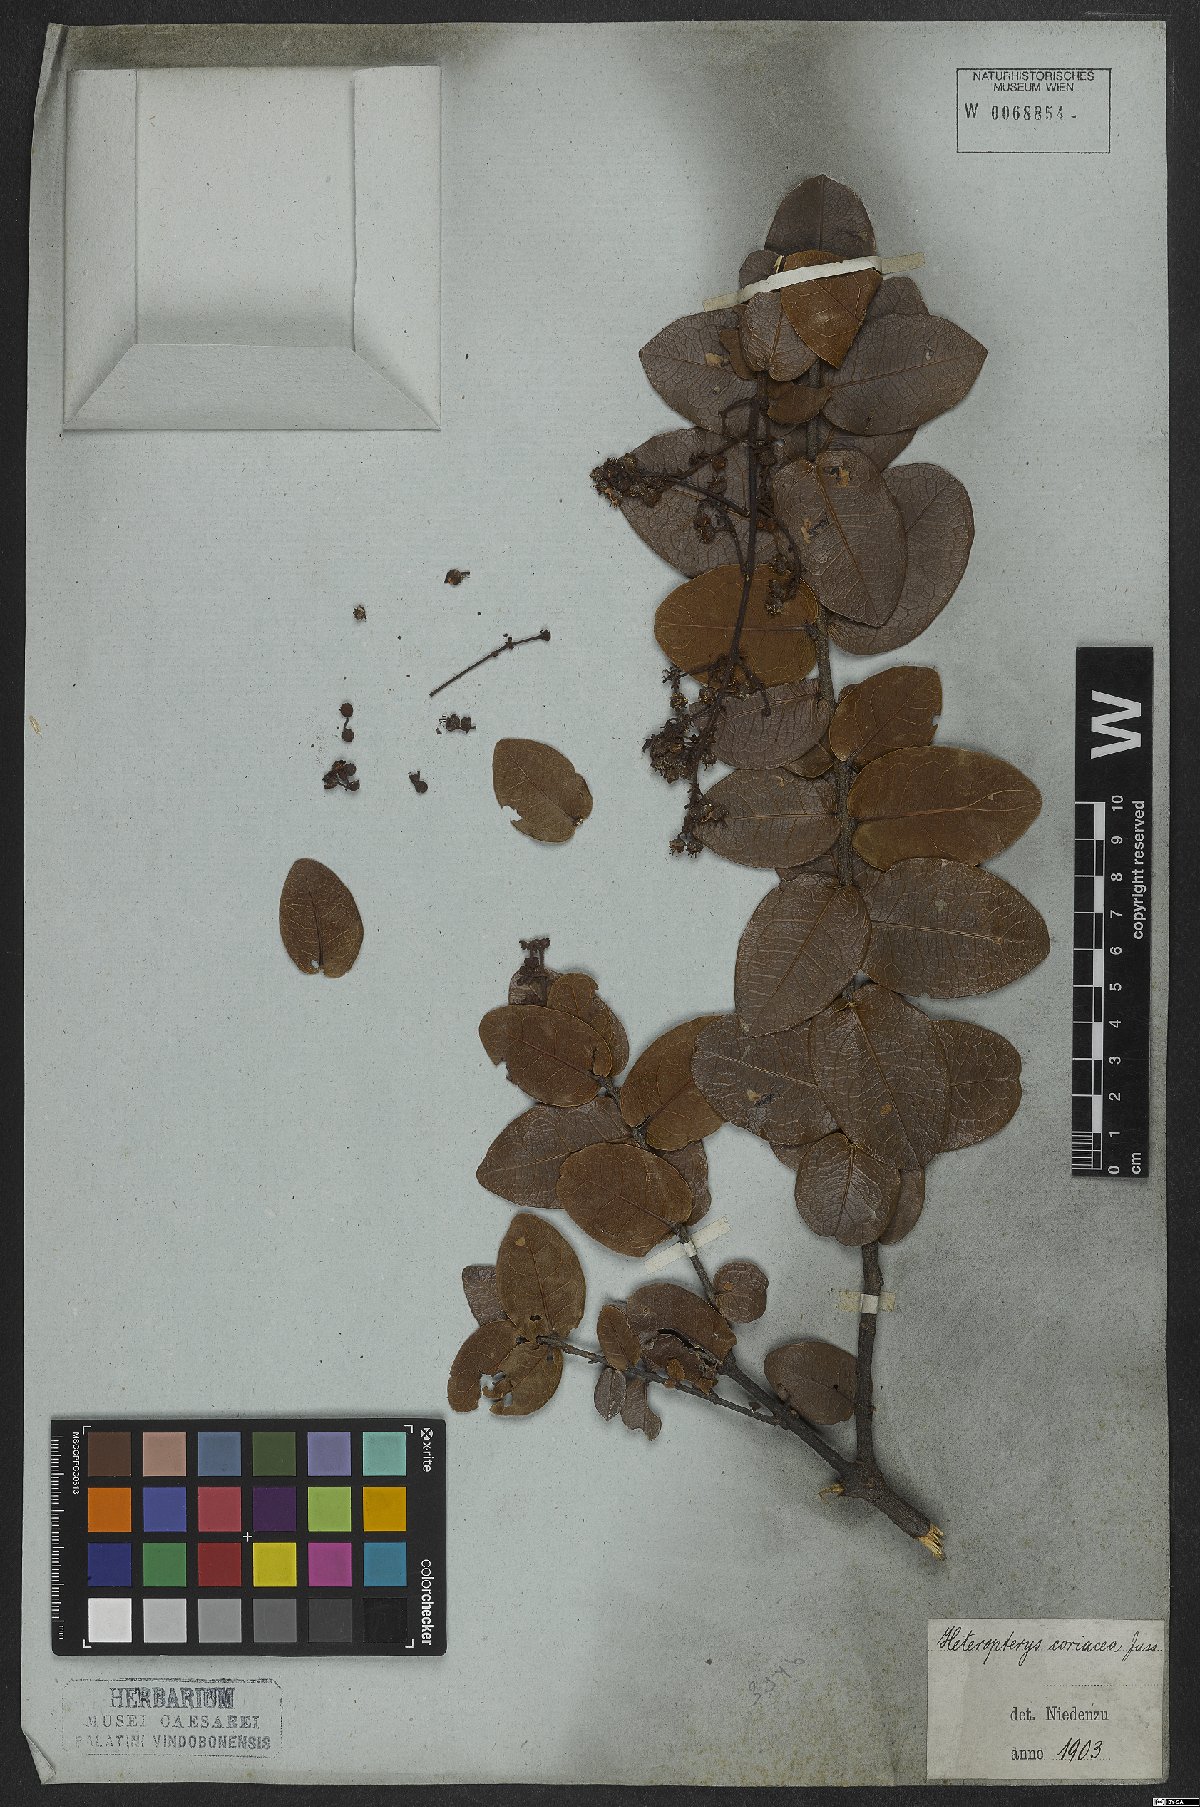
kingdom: Plantae
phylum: Tracheophyta
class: Magnoliopsida
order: Malpighiales
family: Malpighiaceae
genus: Heteropterys
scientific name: Heteropterys coriacea
